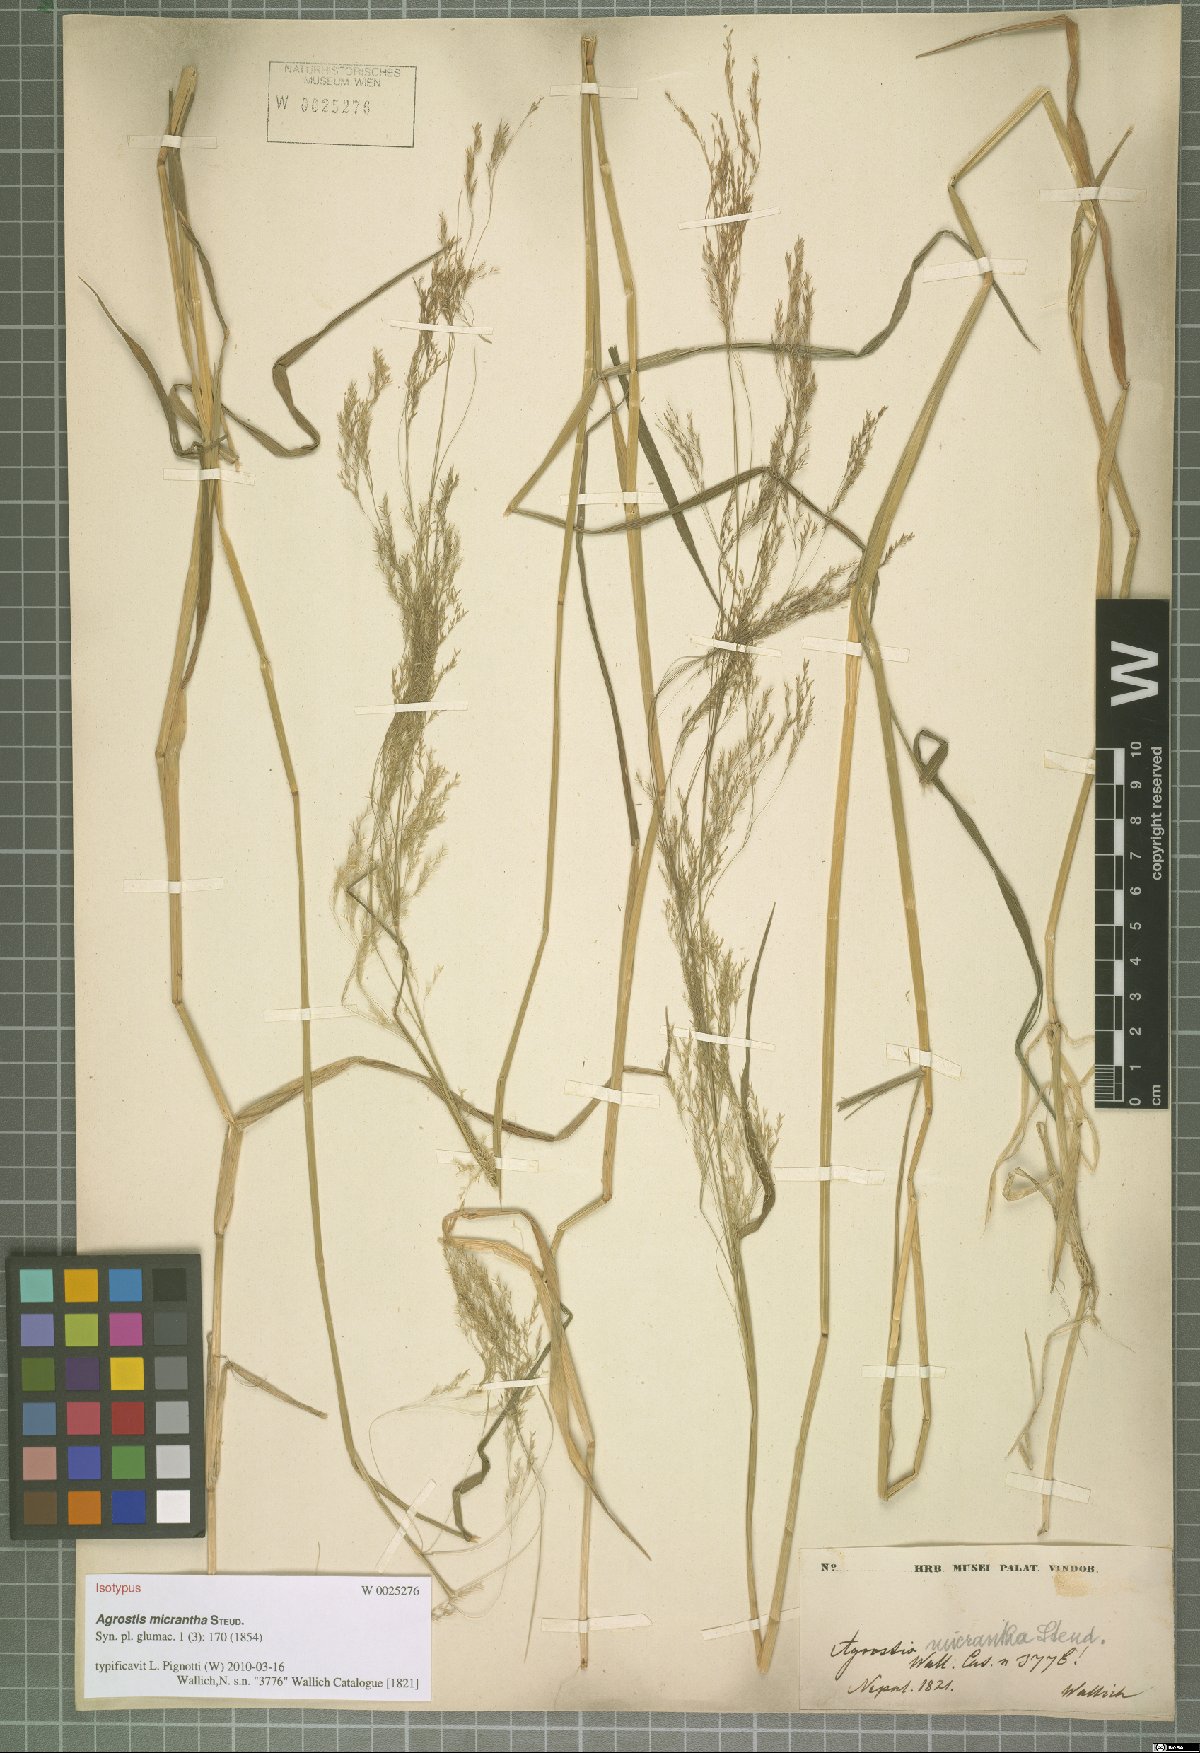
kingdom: Plantae
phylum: Tracheophyta
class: Liliopsida
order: Poales
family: Poaceae
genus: Agrostis
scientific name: Agrostis micrantha
